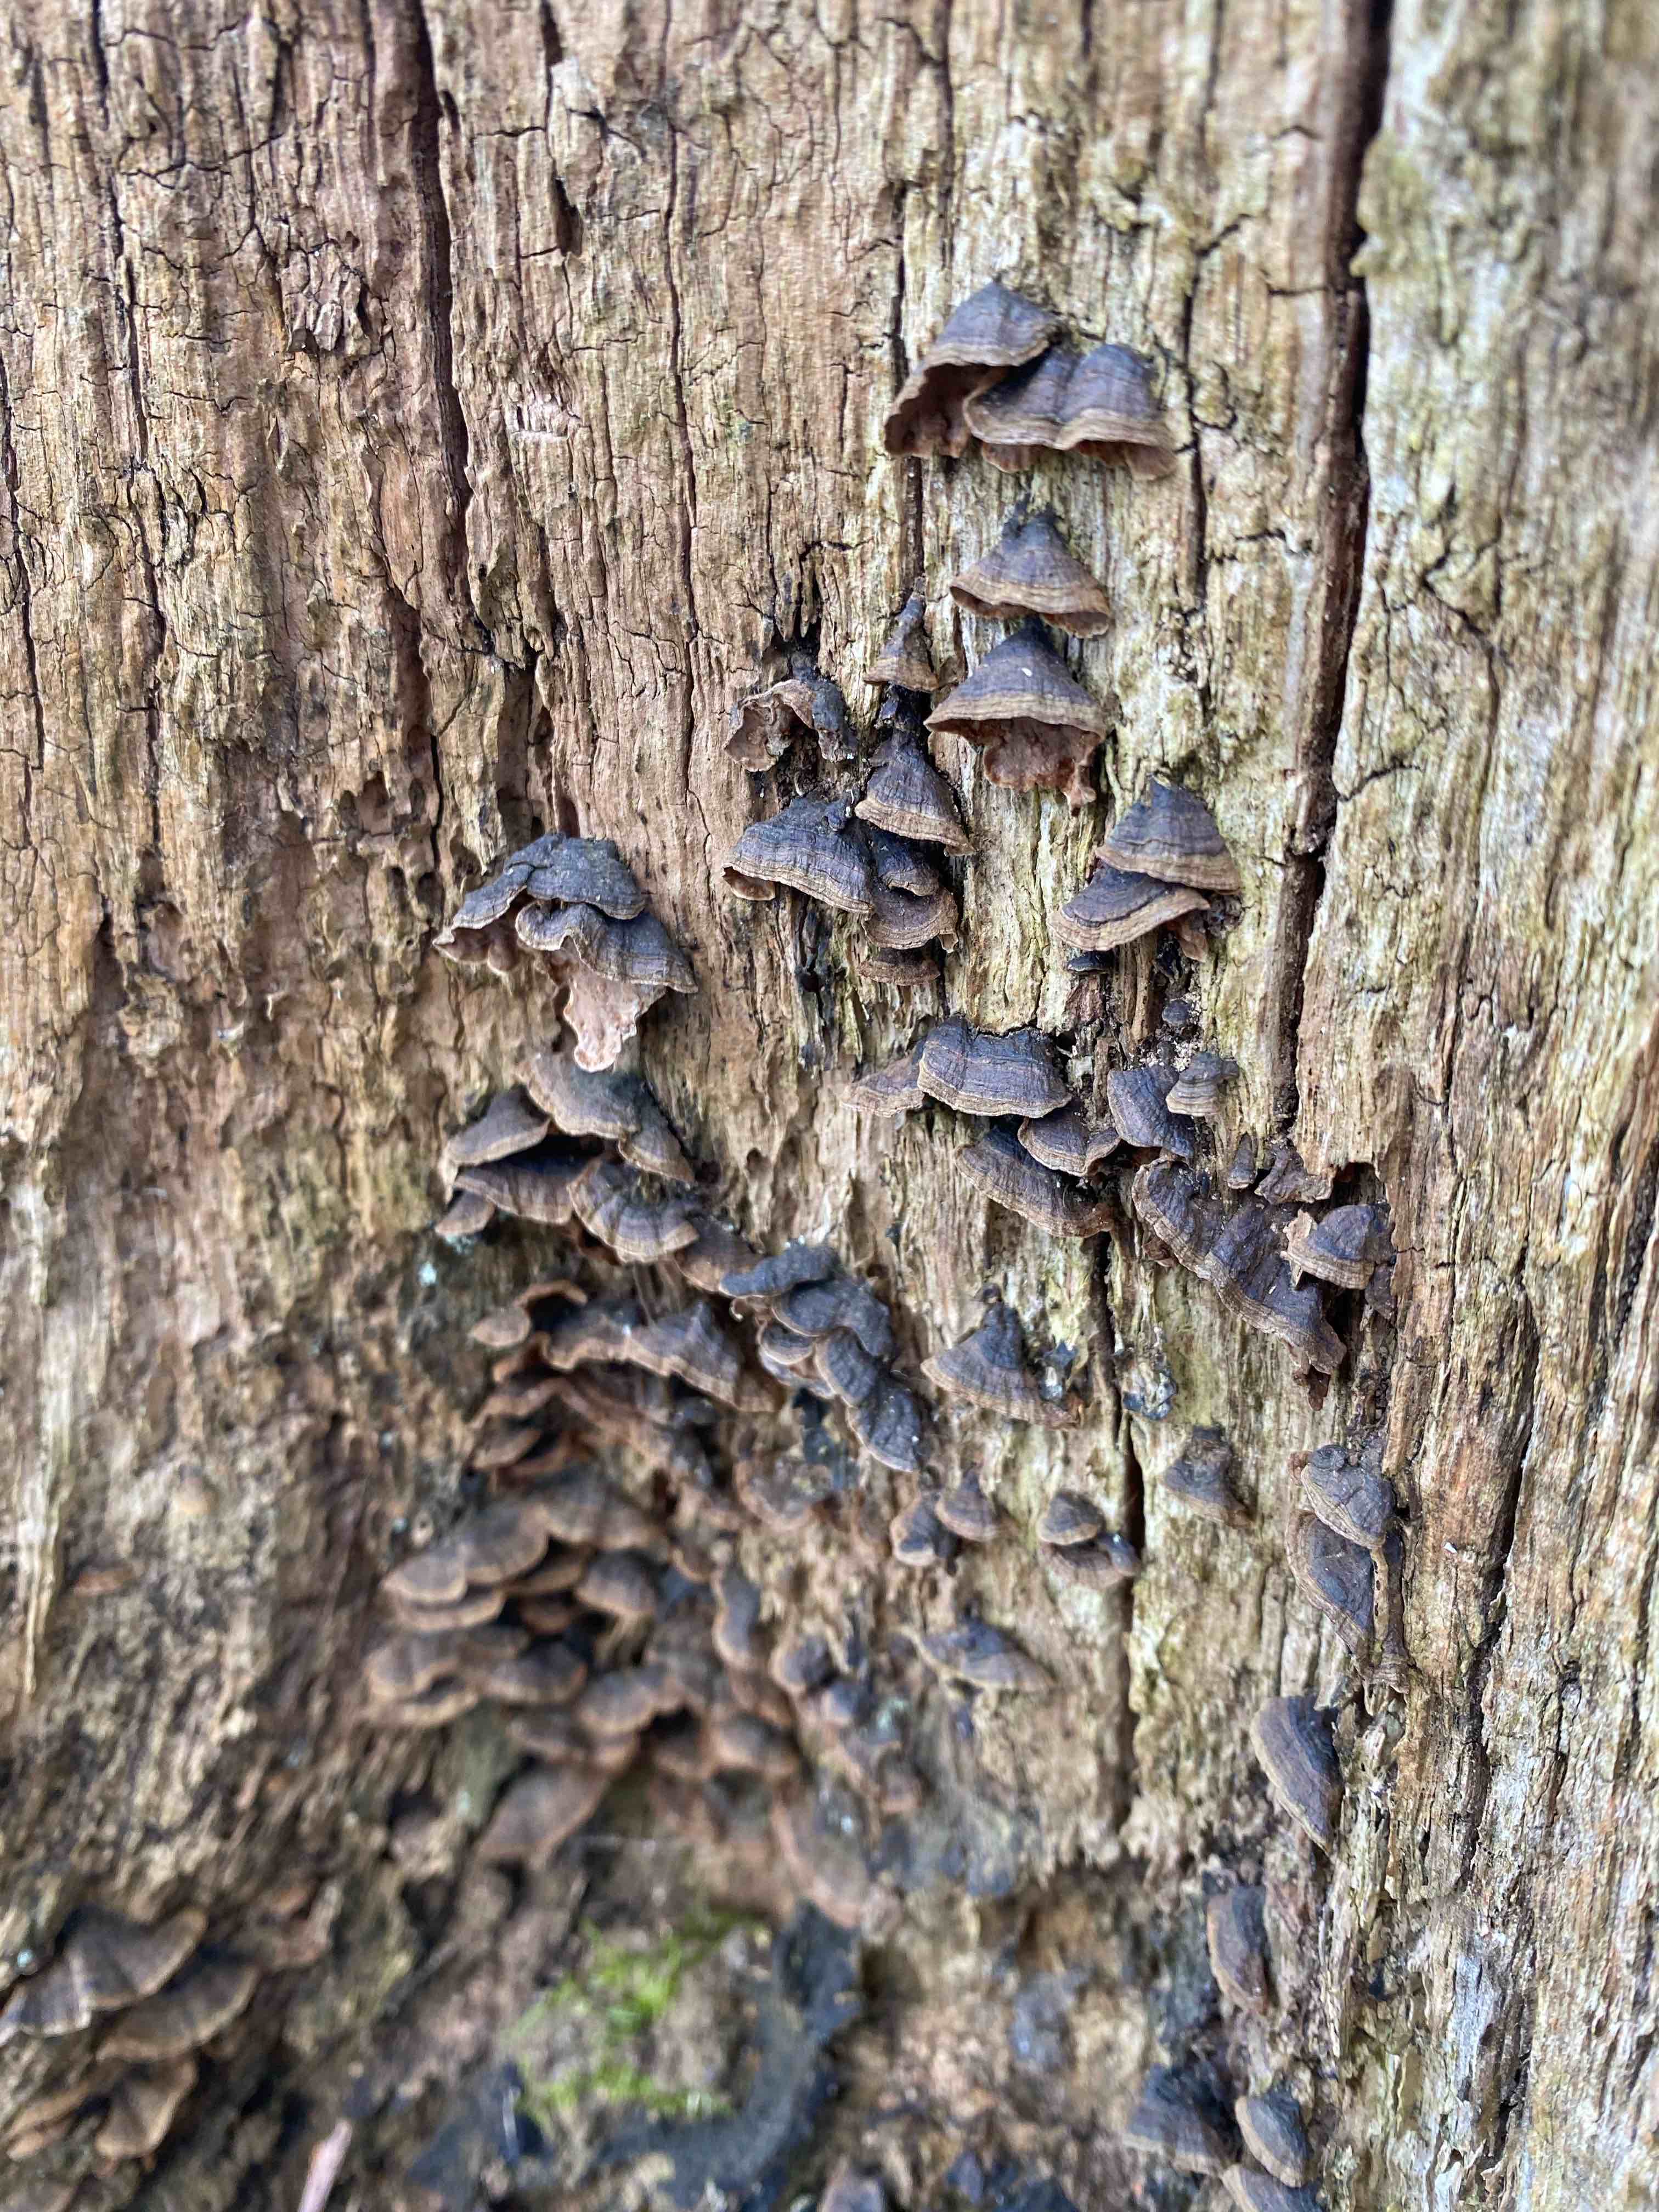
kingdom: Fungi
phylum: Basidiomycota
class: Agaricomycetes
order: Hymenochaetales
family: Hymenochaetaceae
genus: Hymenochaete
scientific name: Hymenochaete rubiginosa
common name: stiv ruslædersvamp
